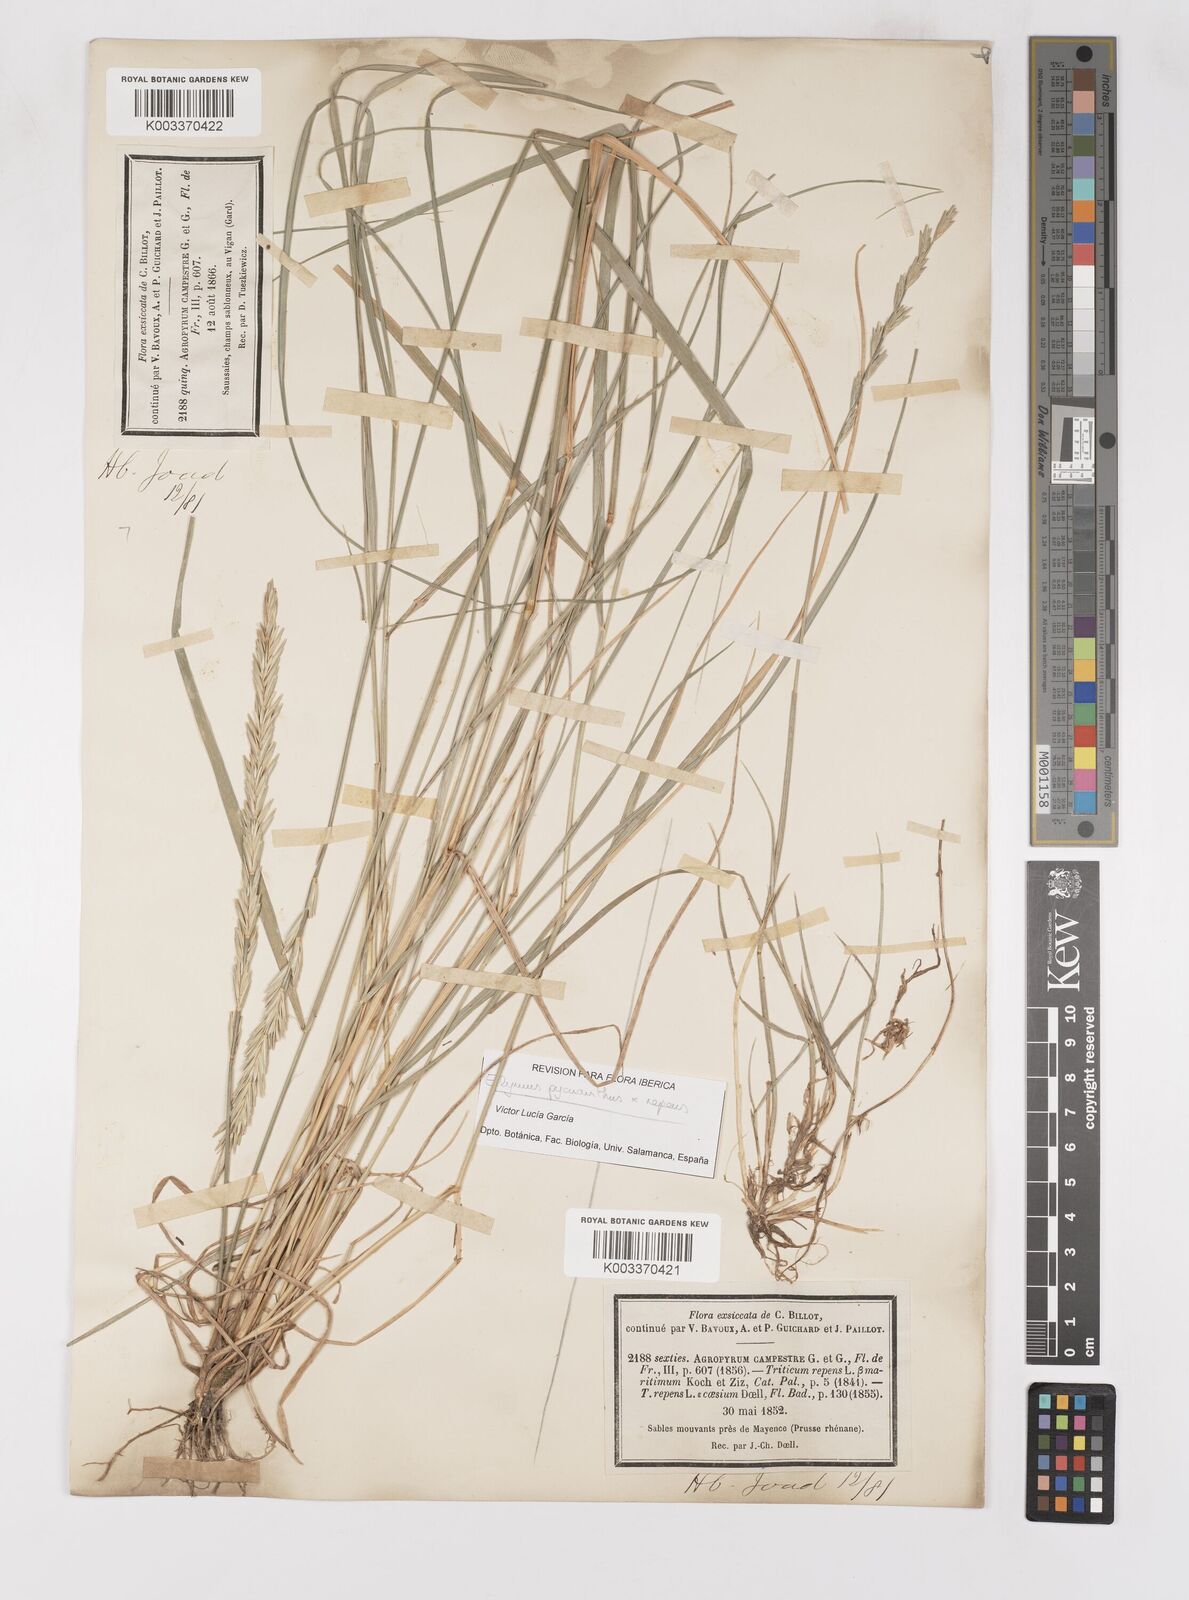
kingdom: Plantae
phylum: Tracheophyta
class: Liliopsida
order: Poales
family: Poaceae
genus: Elymus
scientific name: Elymus oliveri
